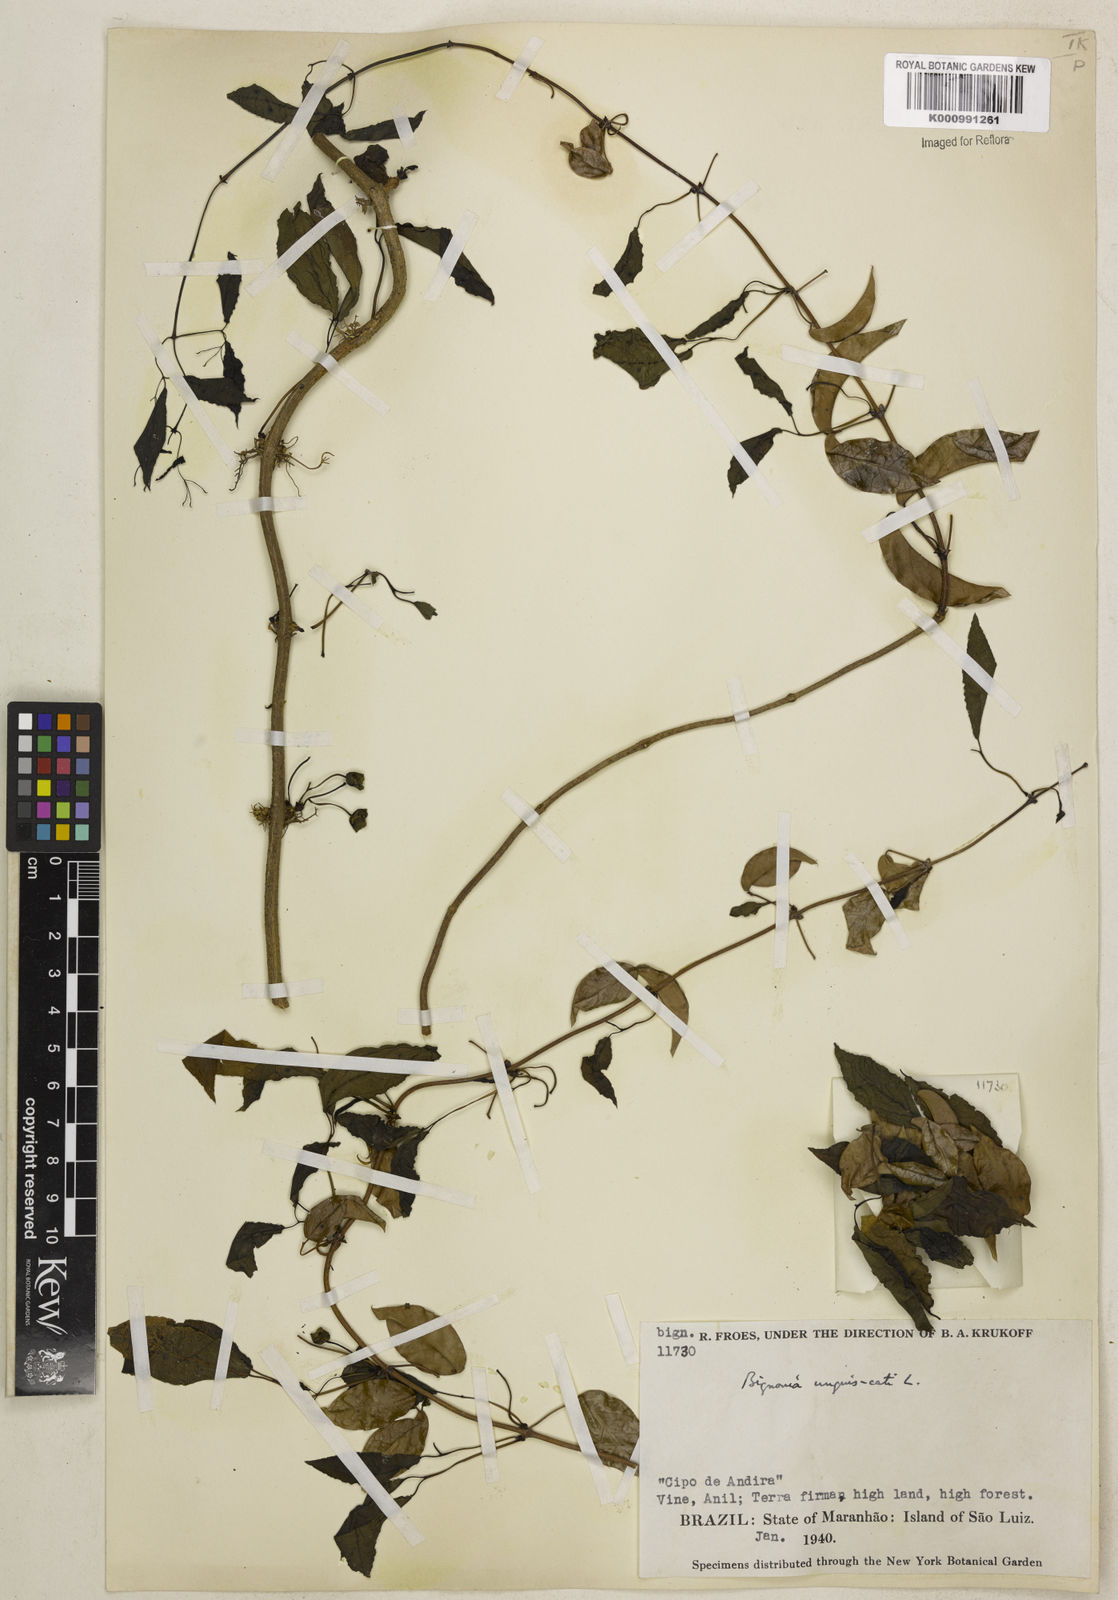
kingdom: Plantae
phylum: Tracheophyta
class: Magnoliopsida
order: Lamiales
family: Bignoniaceae
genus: Dolichandra
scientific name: Dolichandra unguis-cati
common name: Catclaw vine
